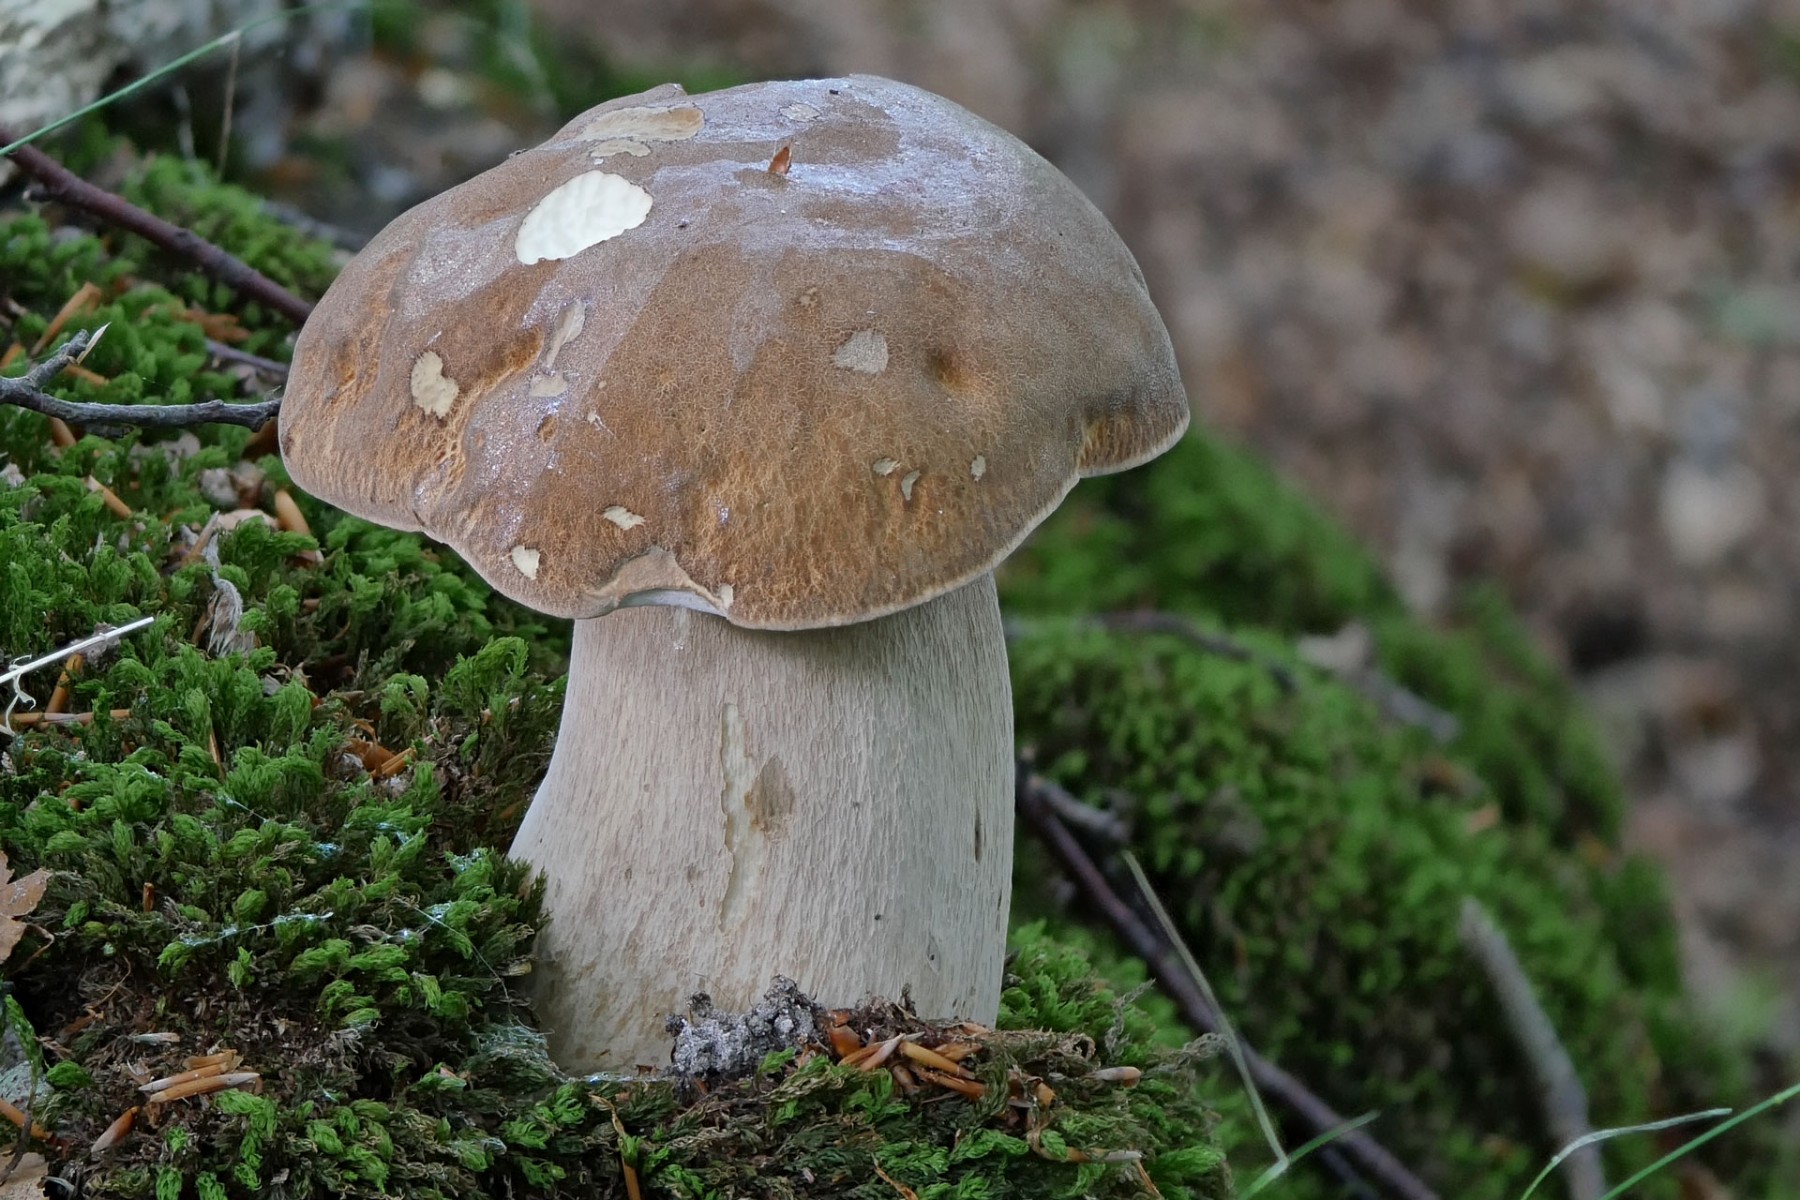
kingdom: Fungi
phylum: Basidiomycota
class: Agaricomycetes
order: Boletales
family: Boletaceae
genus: Boletus
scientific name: Boletus reticulatus
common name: sommer-rørhat
